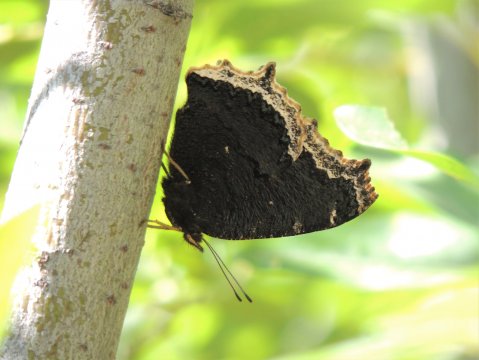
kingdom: Animalia
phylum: Arthropoda
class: Insecta
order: Lepidoptera
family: Nymphalidae
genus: Nymphalis
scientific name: Nymphalis antiopa
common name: Mourning Cloak
